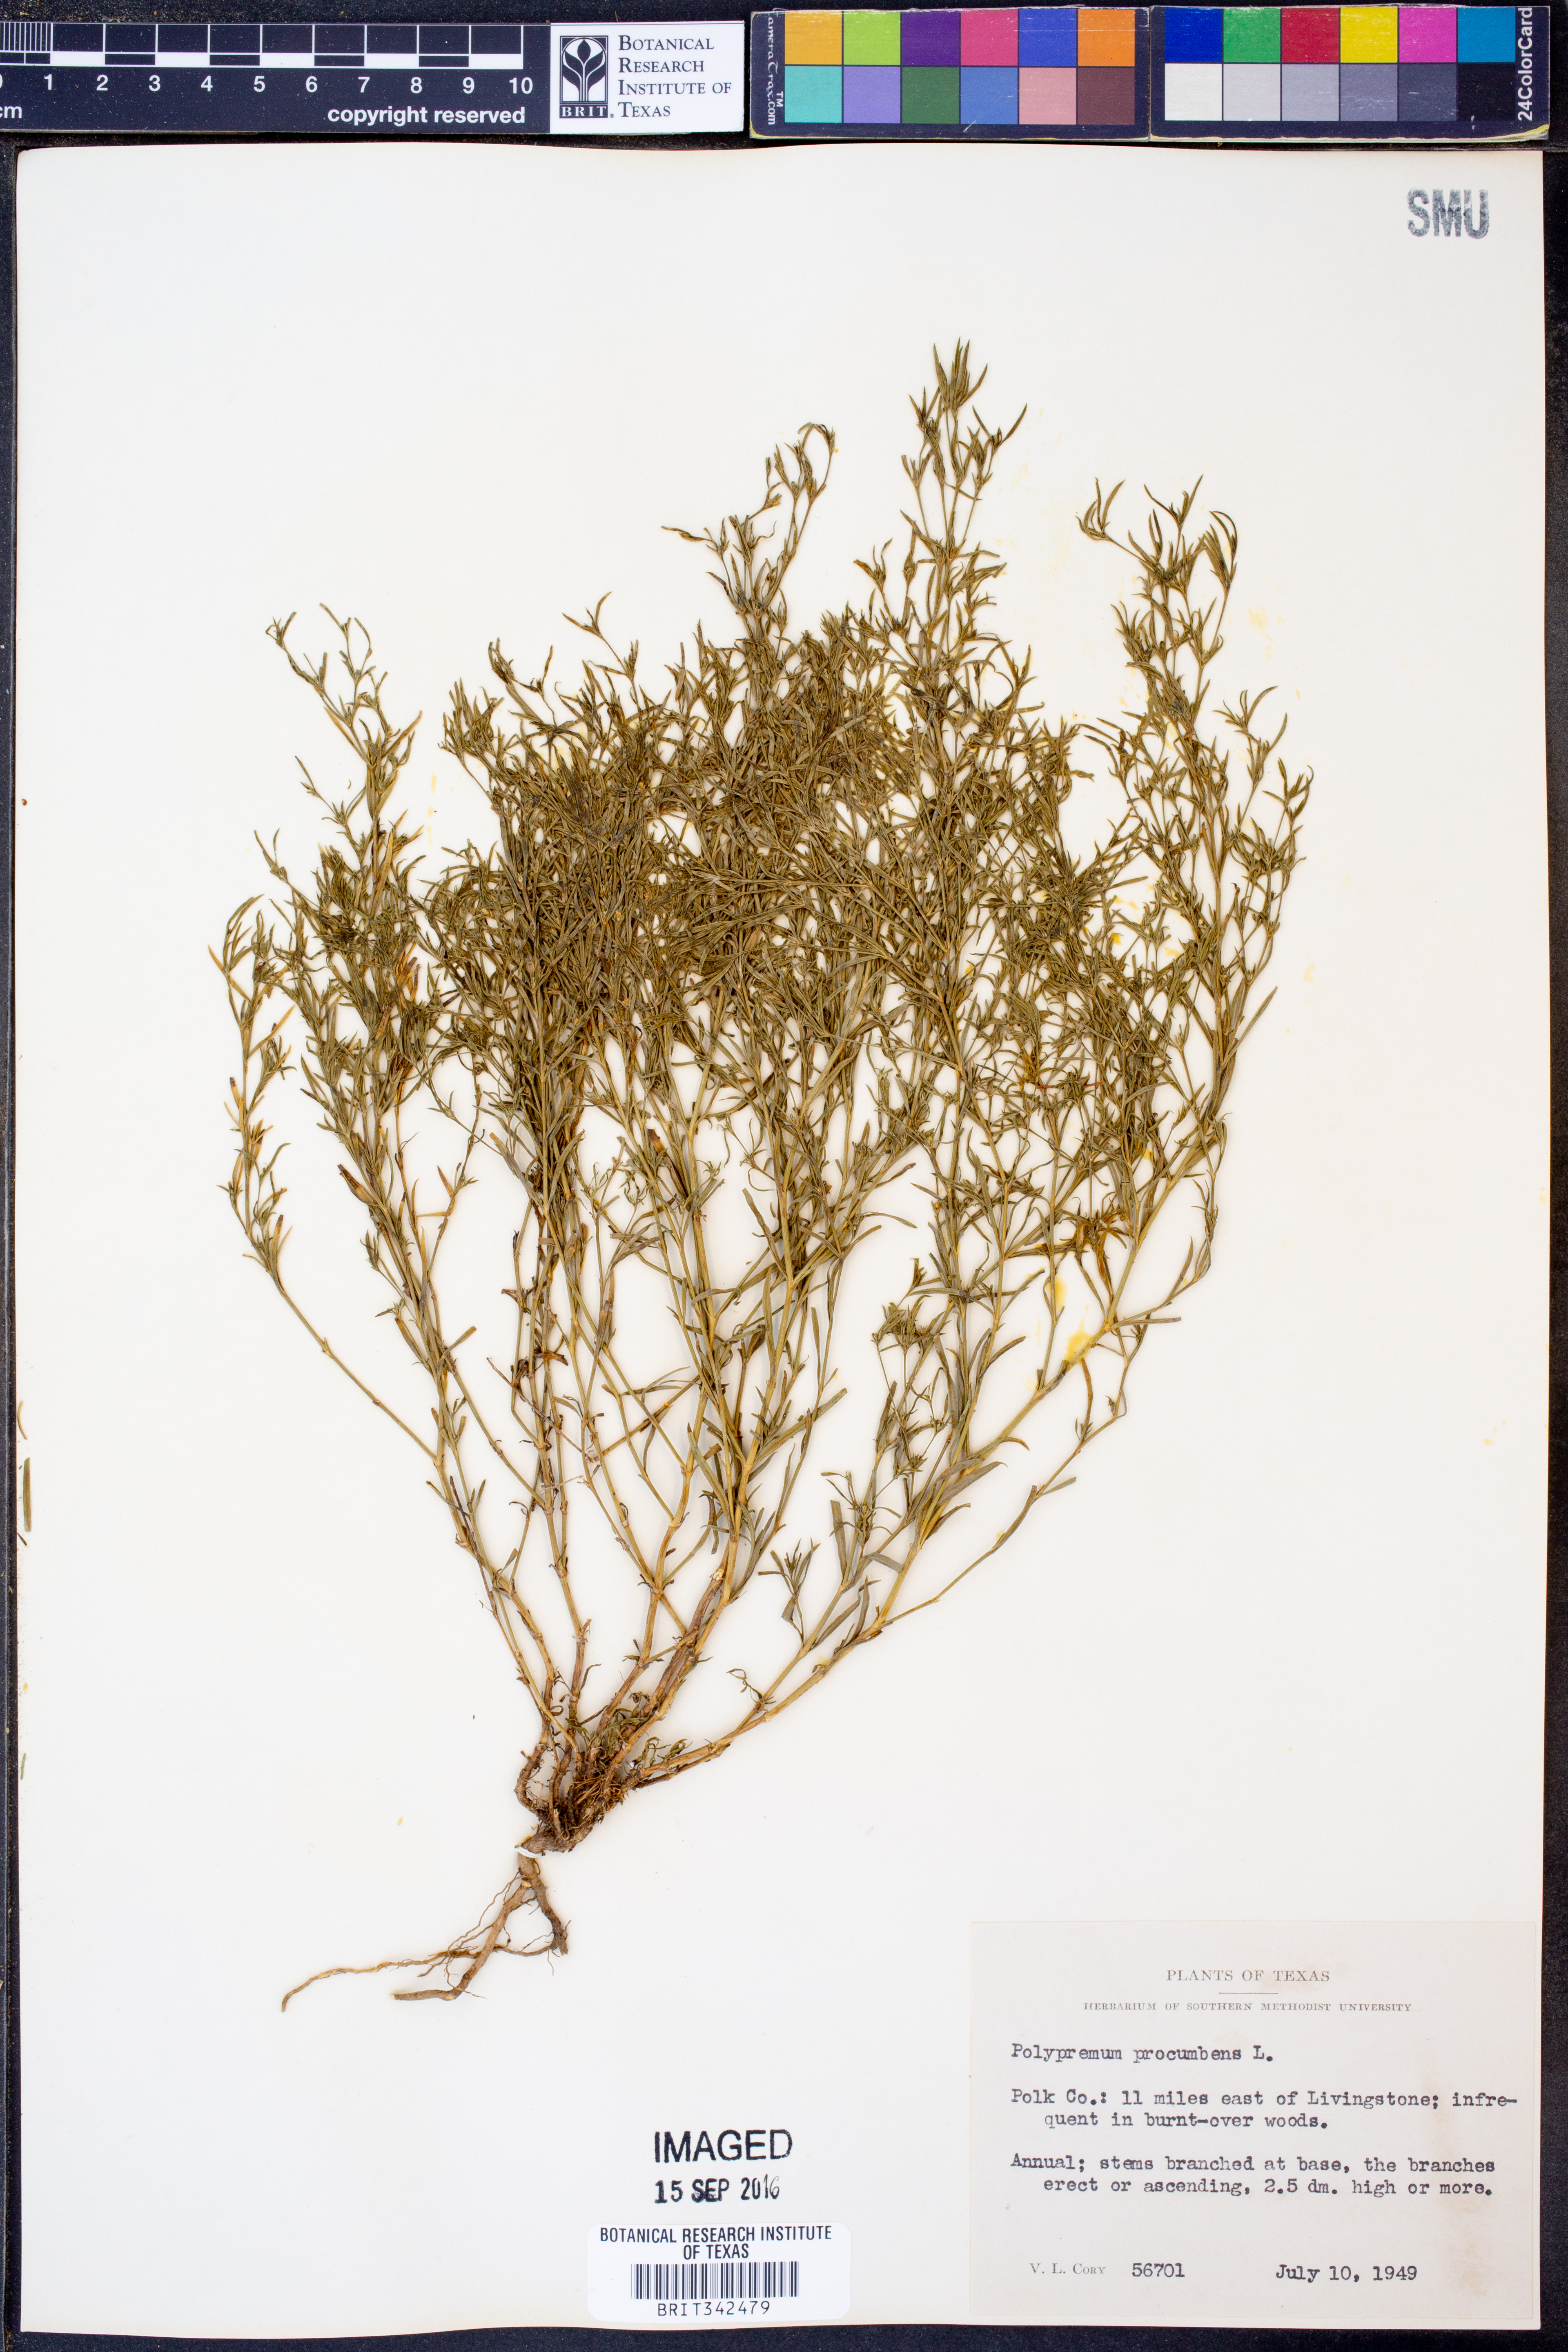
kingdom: Plantae
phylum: Tracheophyta
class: Magnoliopsida
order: Lamiales
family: Tetrachondraceae
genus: Polypremum
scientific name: Polypremum procumbens
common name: Juniper-leaf
